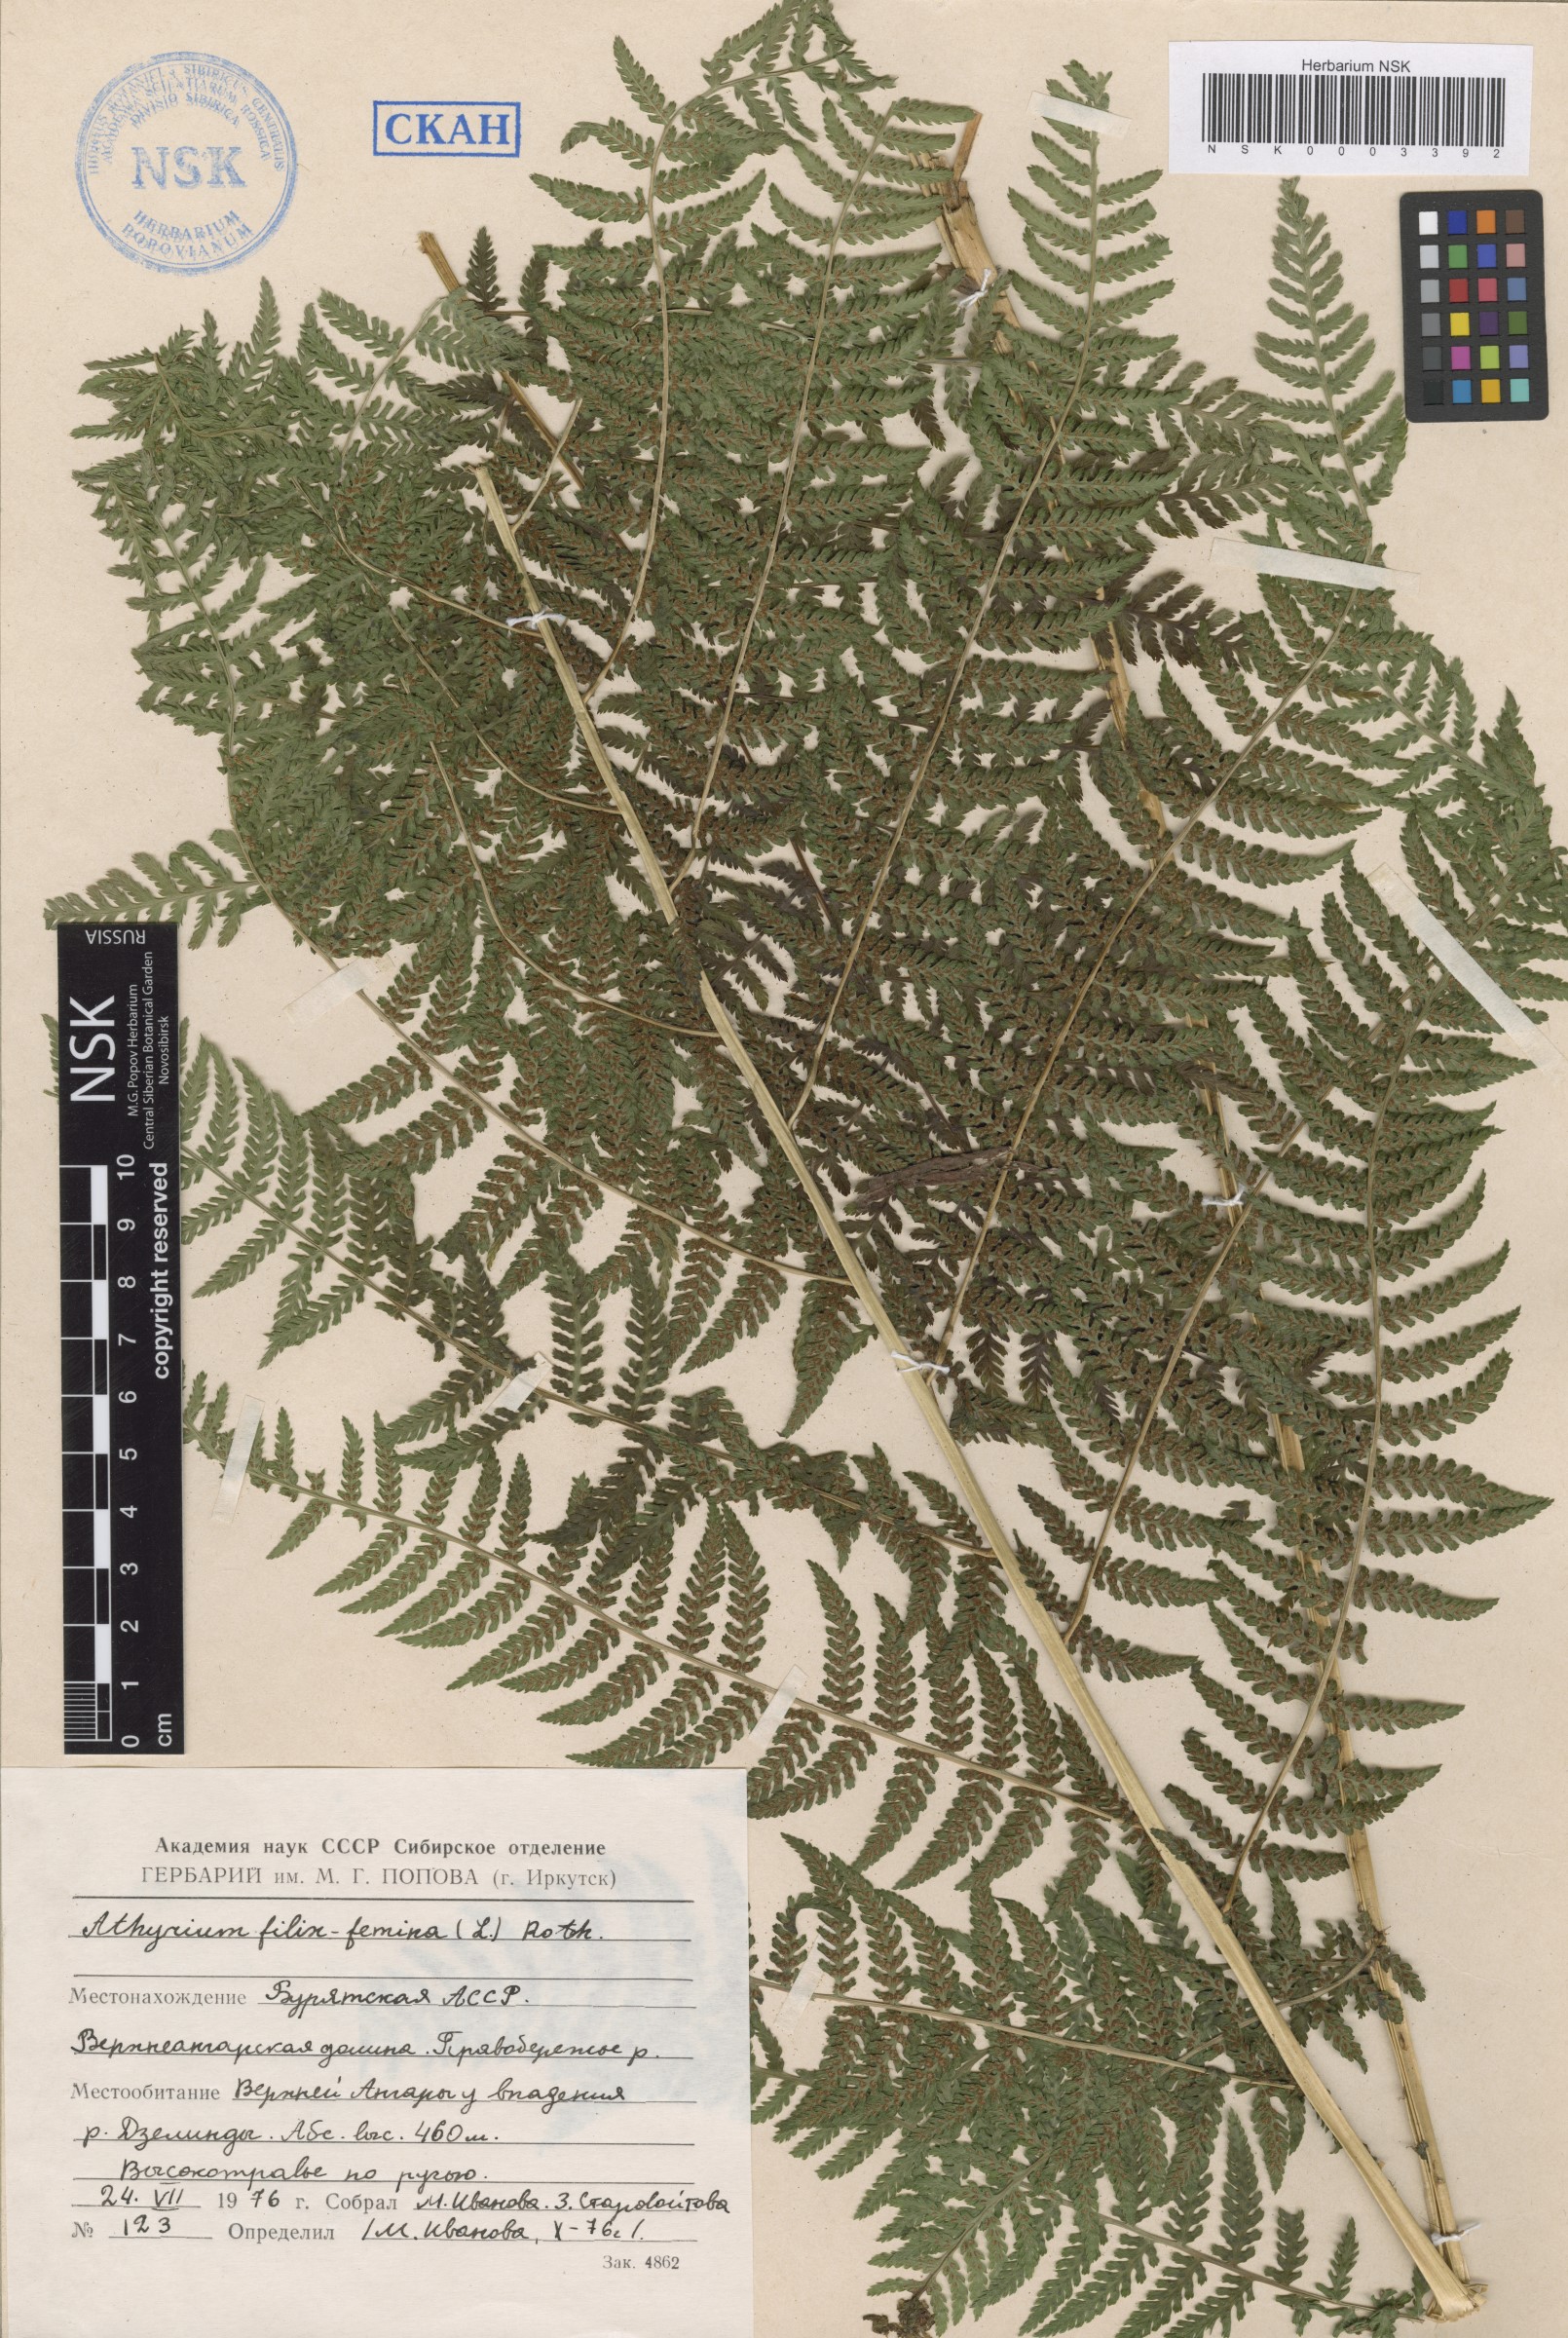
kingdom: Plantae
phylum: Tracheophyta
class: Polypodiopsida
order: Polypodiales
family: Athyriaceae
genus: Athyrium
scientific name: Athyrium filix-femina
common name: Lady fern
